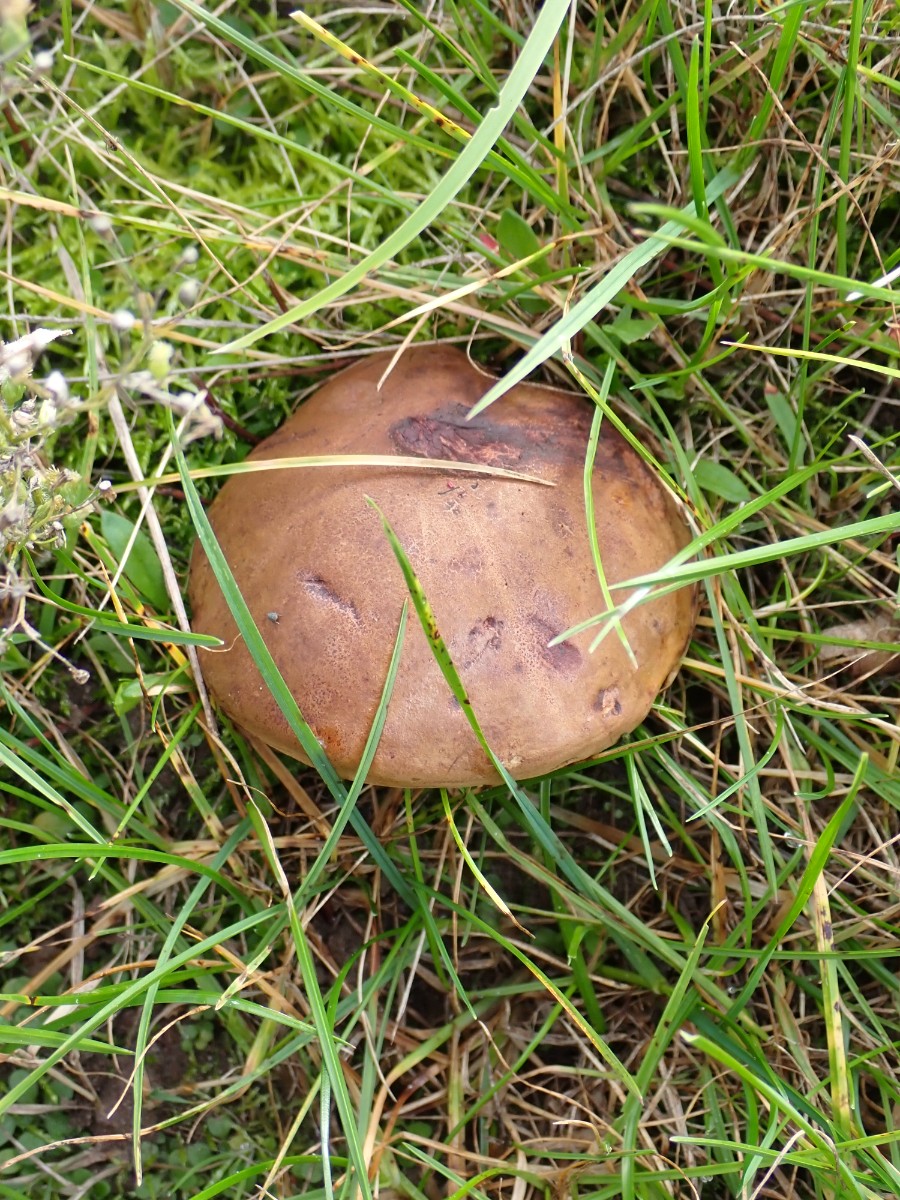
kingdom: Fungi
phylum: Basidiomycota
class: Agaricomycetes
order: Boletales
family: Boletaceae
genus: Cyanoboletus
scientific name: Cyanoboletus pulverulentus
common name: sortblånende rørhat
